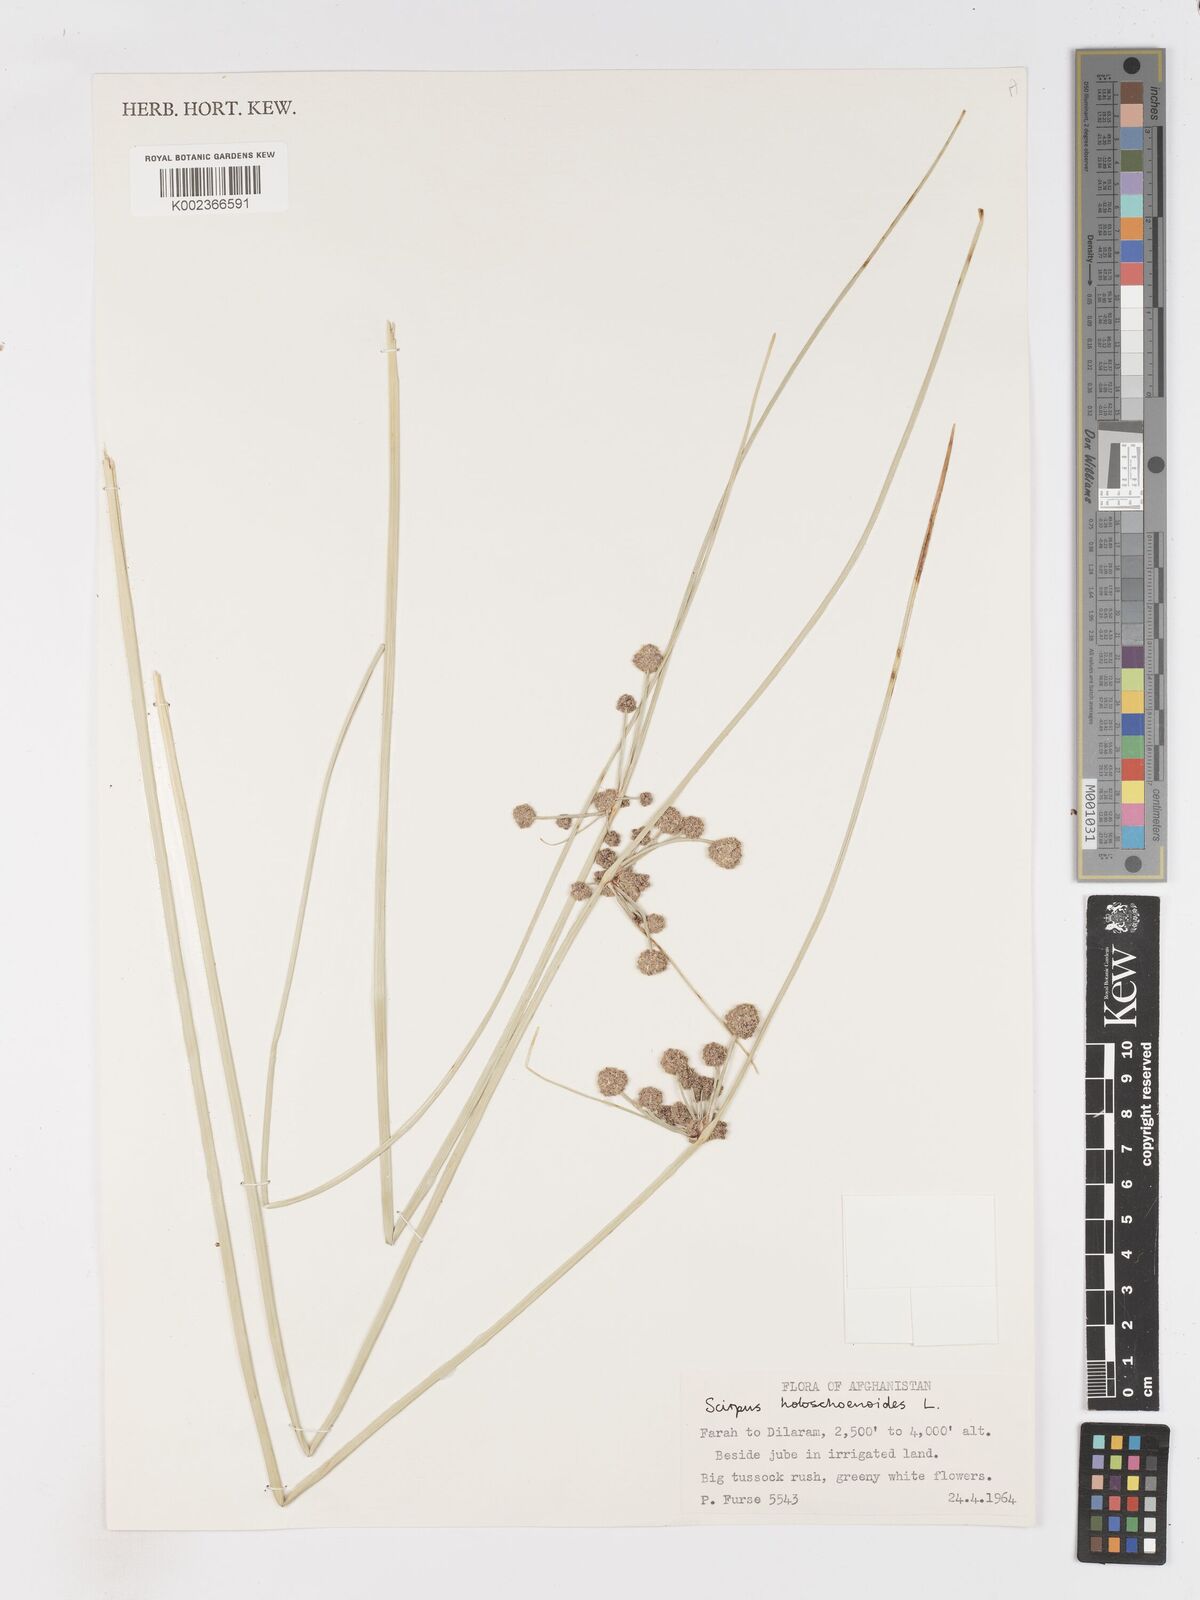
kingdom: Plantae
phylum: Tracheophyta
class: Liliopsida
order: Poales
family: Cyperaceae
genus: Scirpoides
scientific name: Scirpoides holoschoenus
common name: Round-headed club-rush
